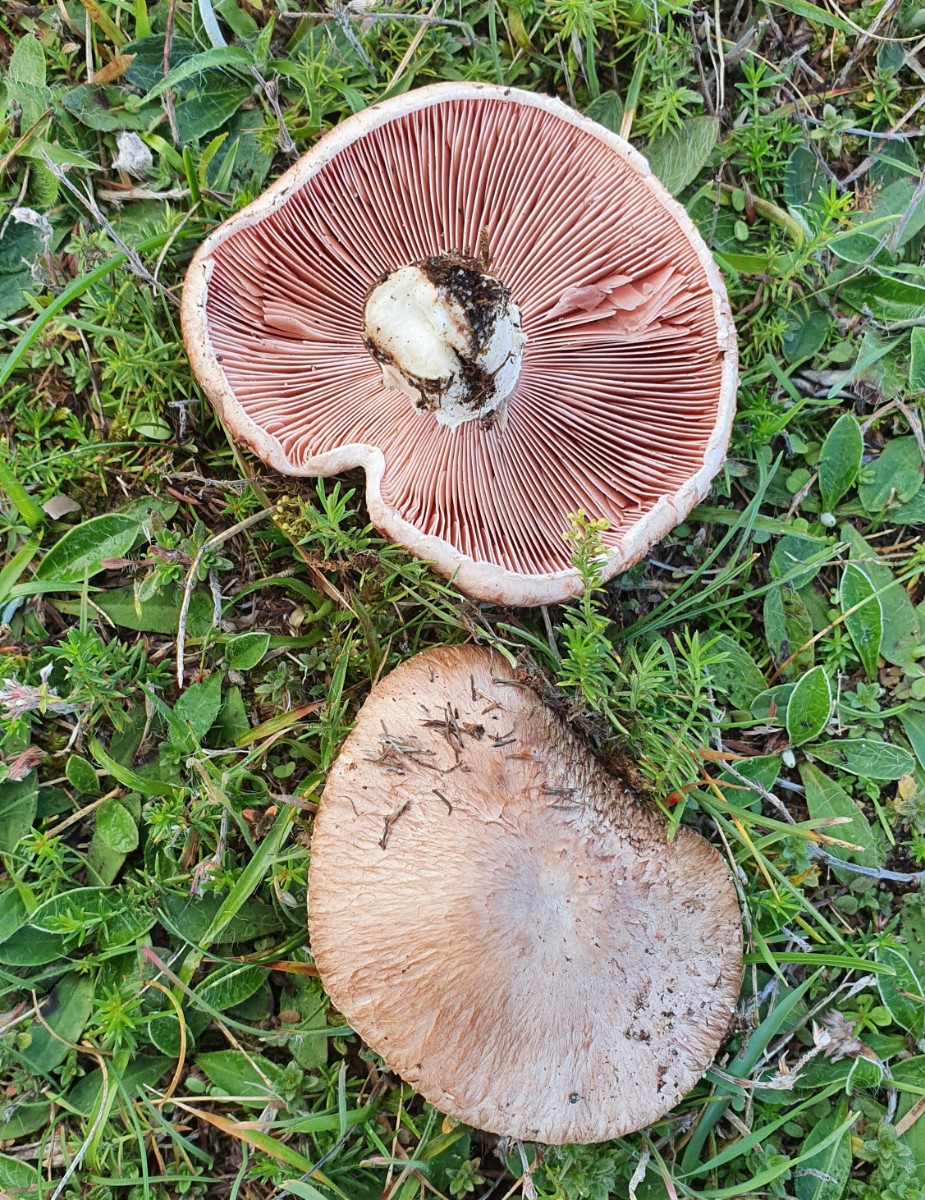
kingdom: Fungi
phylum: Basidiomycota
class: Agaricomycetes
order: Agaricales
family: Agaricaceae
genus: Agaricus
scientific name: Agaricus cupreobrunneus
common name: kobberbrun champignon
